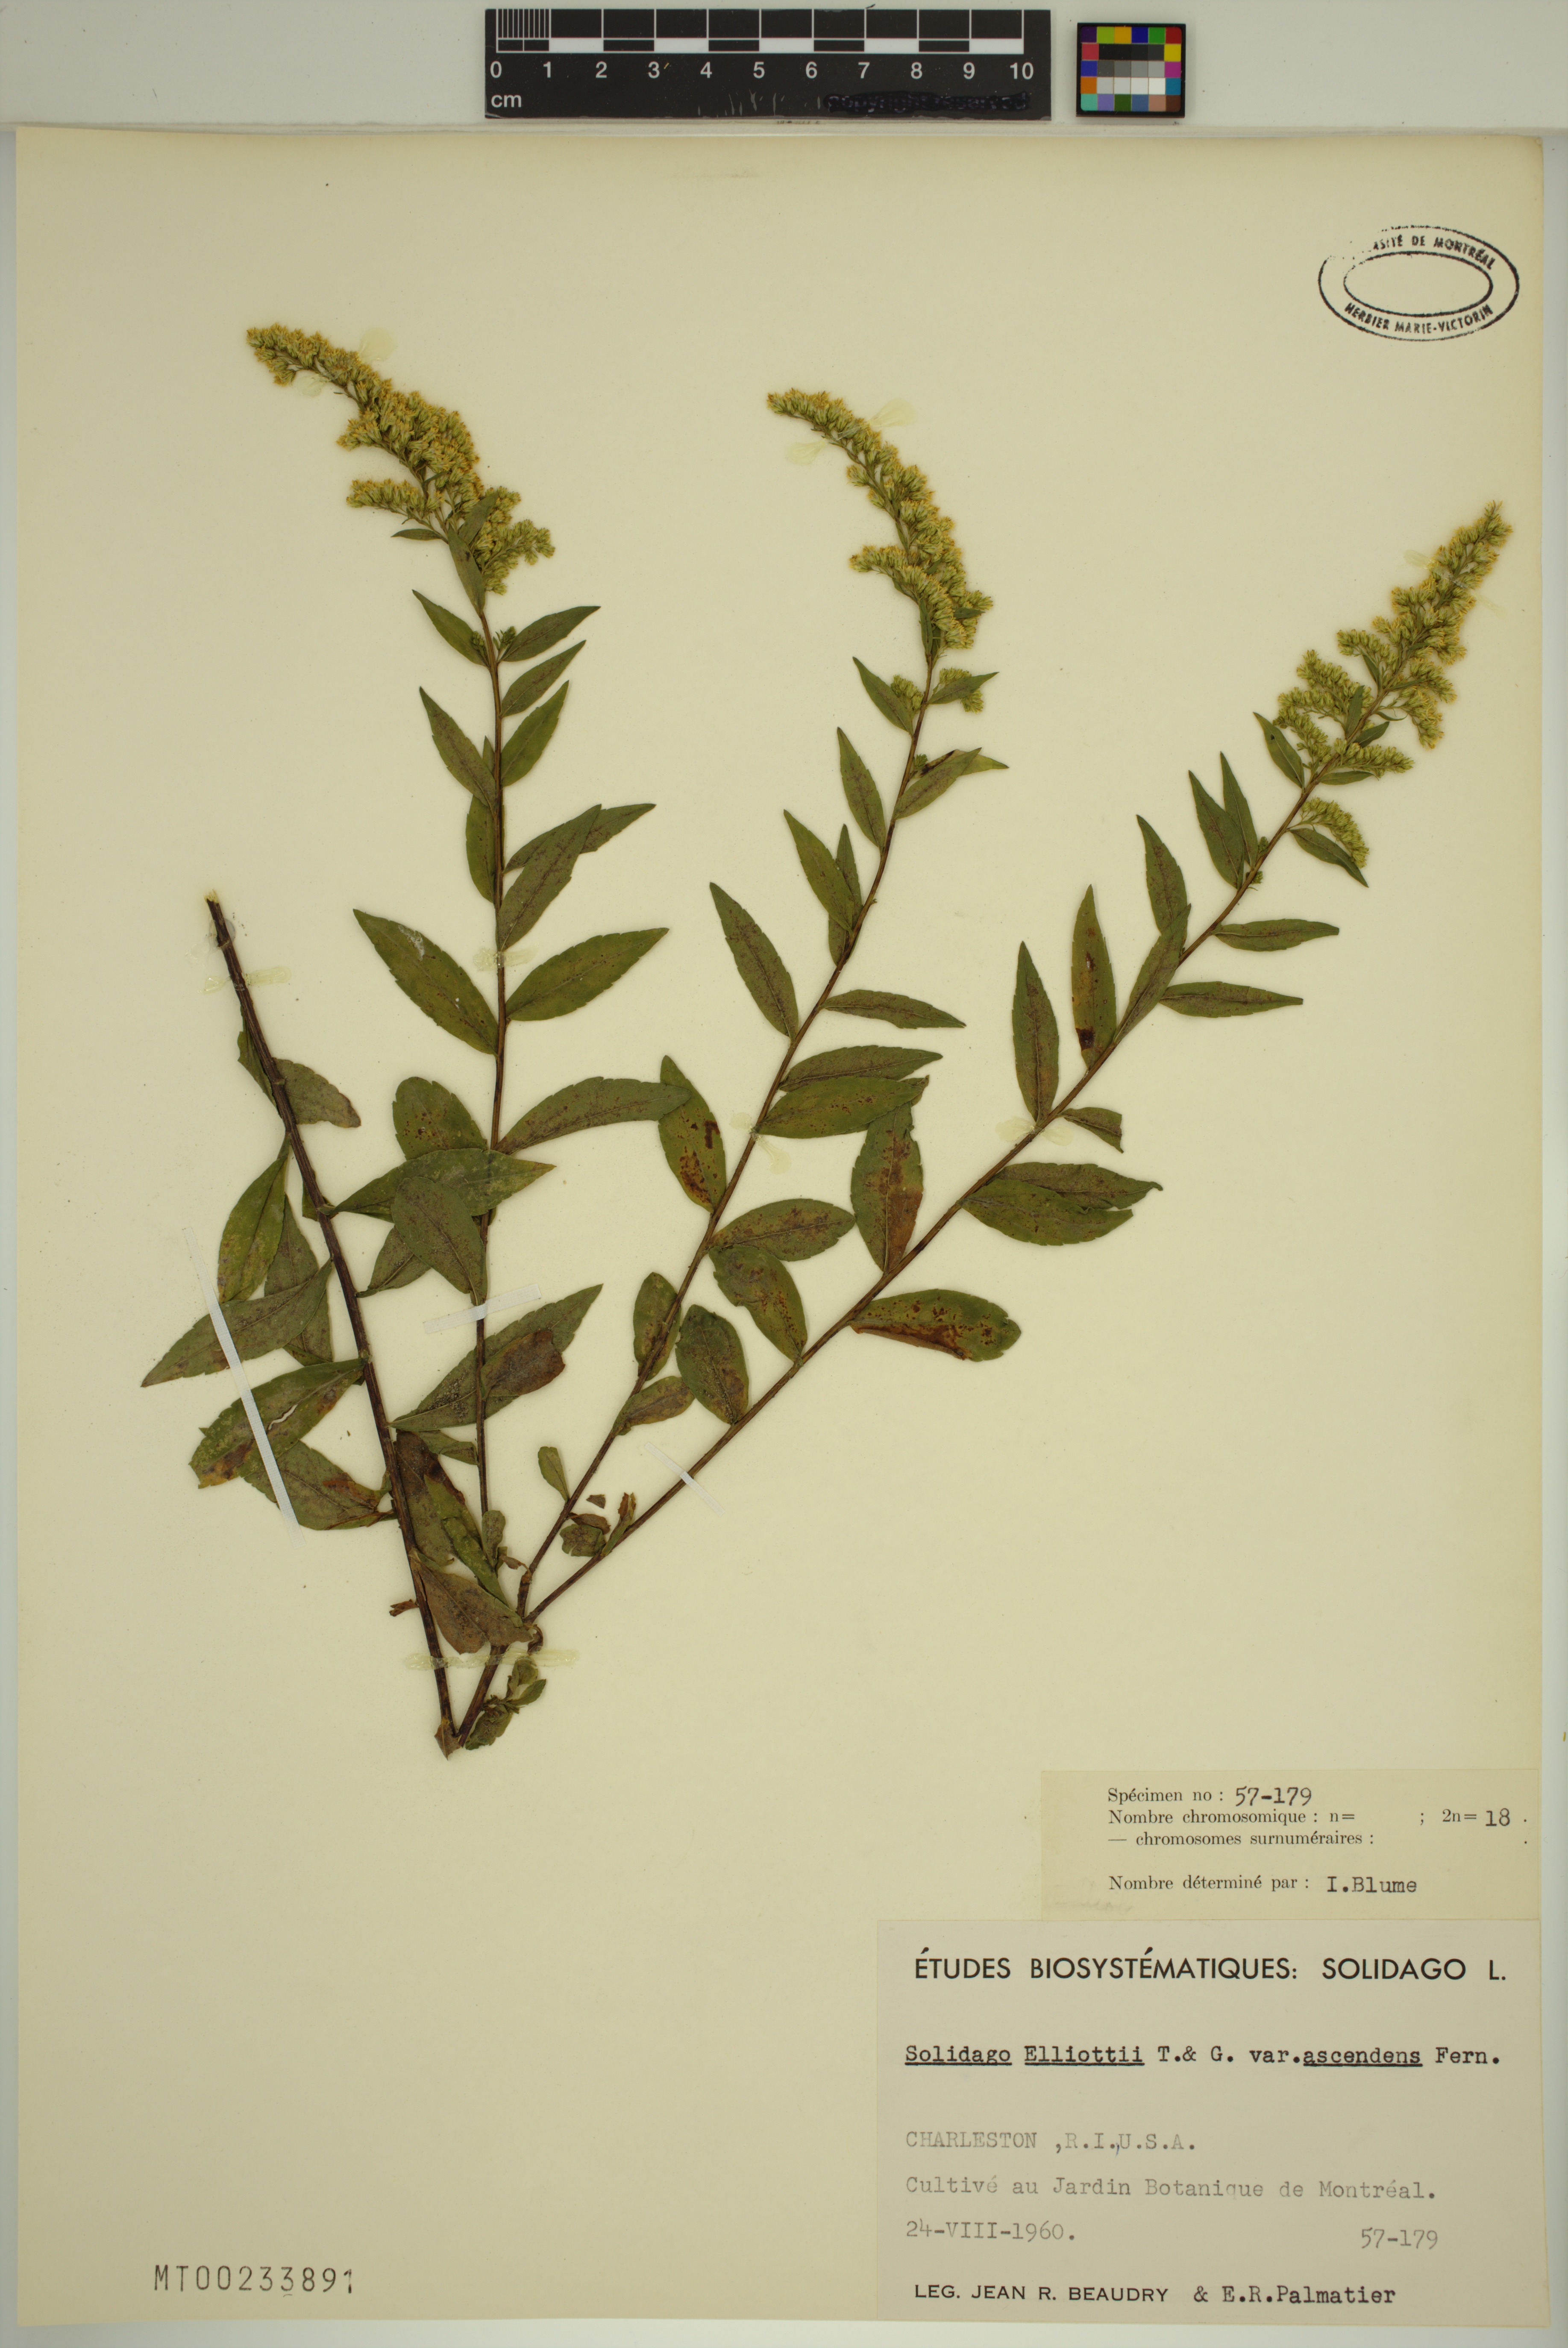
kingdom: Plantae
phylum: Tracheophyta
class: Magnoliopsida
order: Asterales
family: Asteraceae
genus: Solidago
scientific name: Solidago latissimifolia
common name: Elliott's goldenrod
